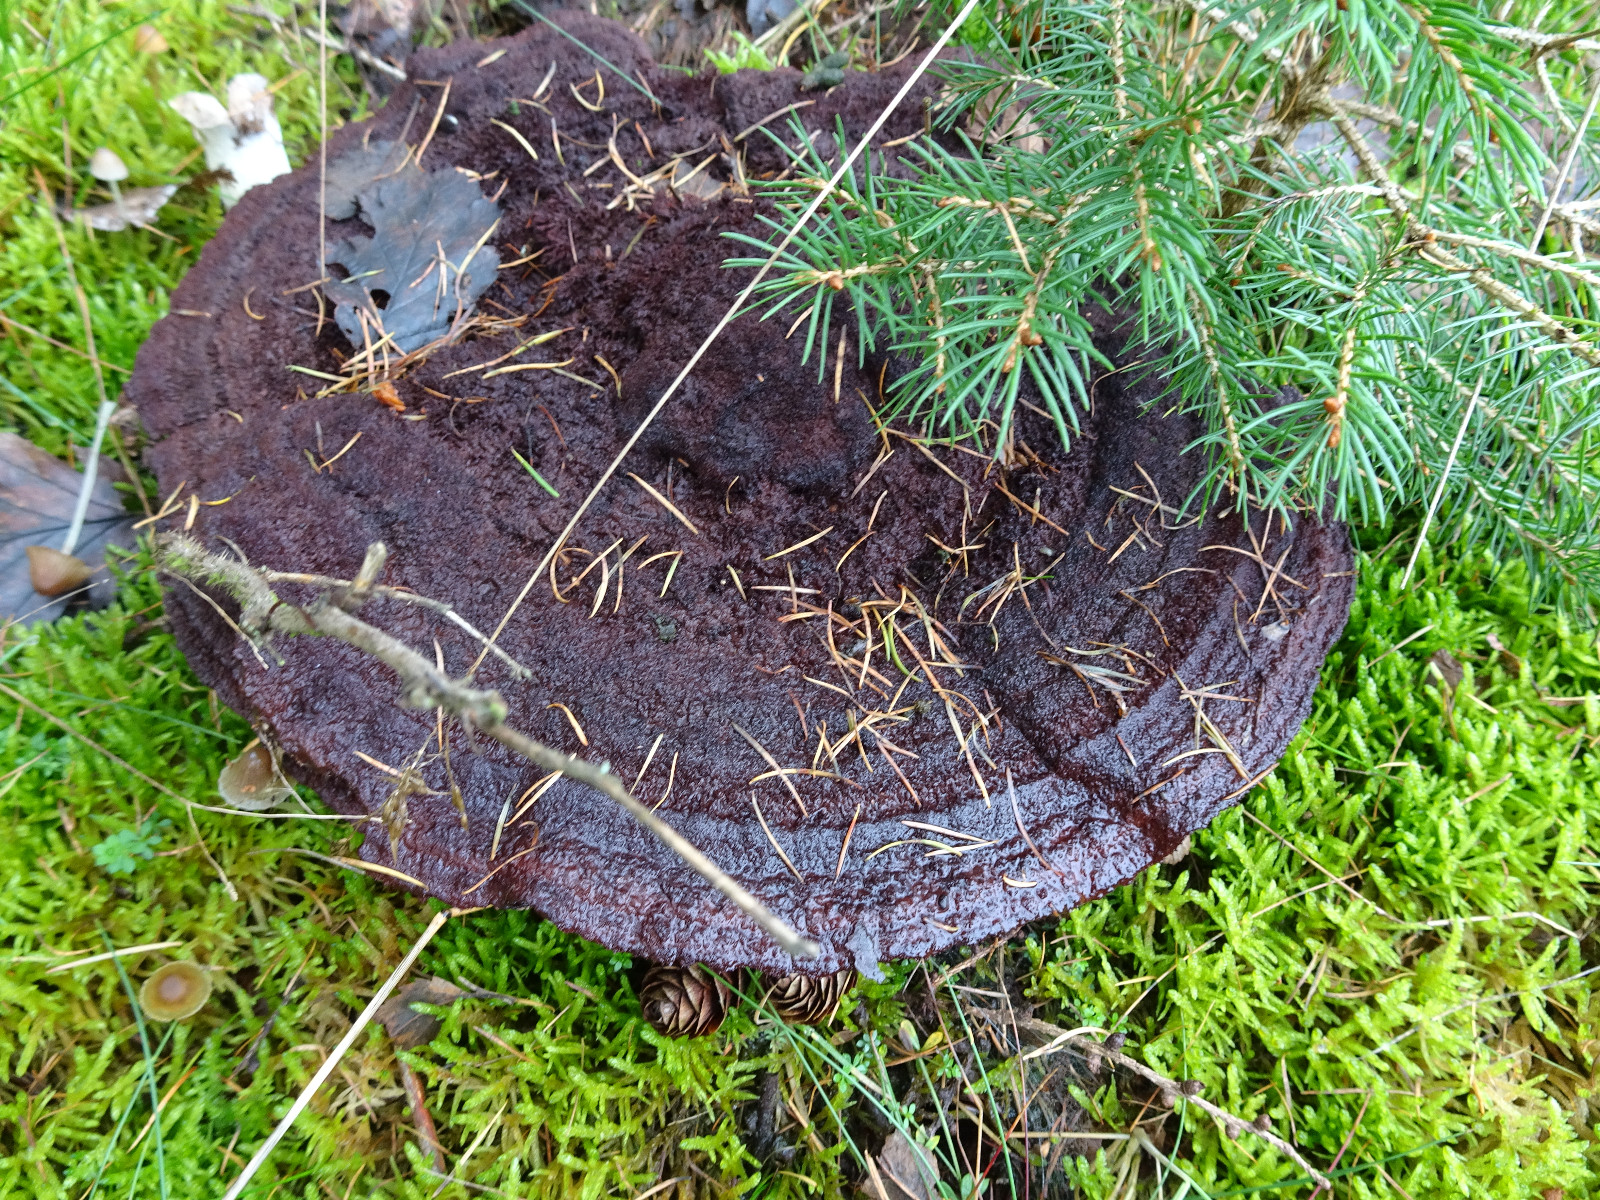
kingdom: Fungi
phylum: Basidiomycota
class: Agaricomycetes
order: Polyporales
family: Laetiporaceae
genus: Phaeolus
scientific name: Phaeolus schweinitzii
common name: brunporesvamp
